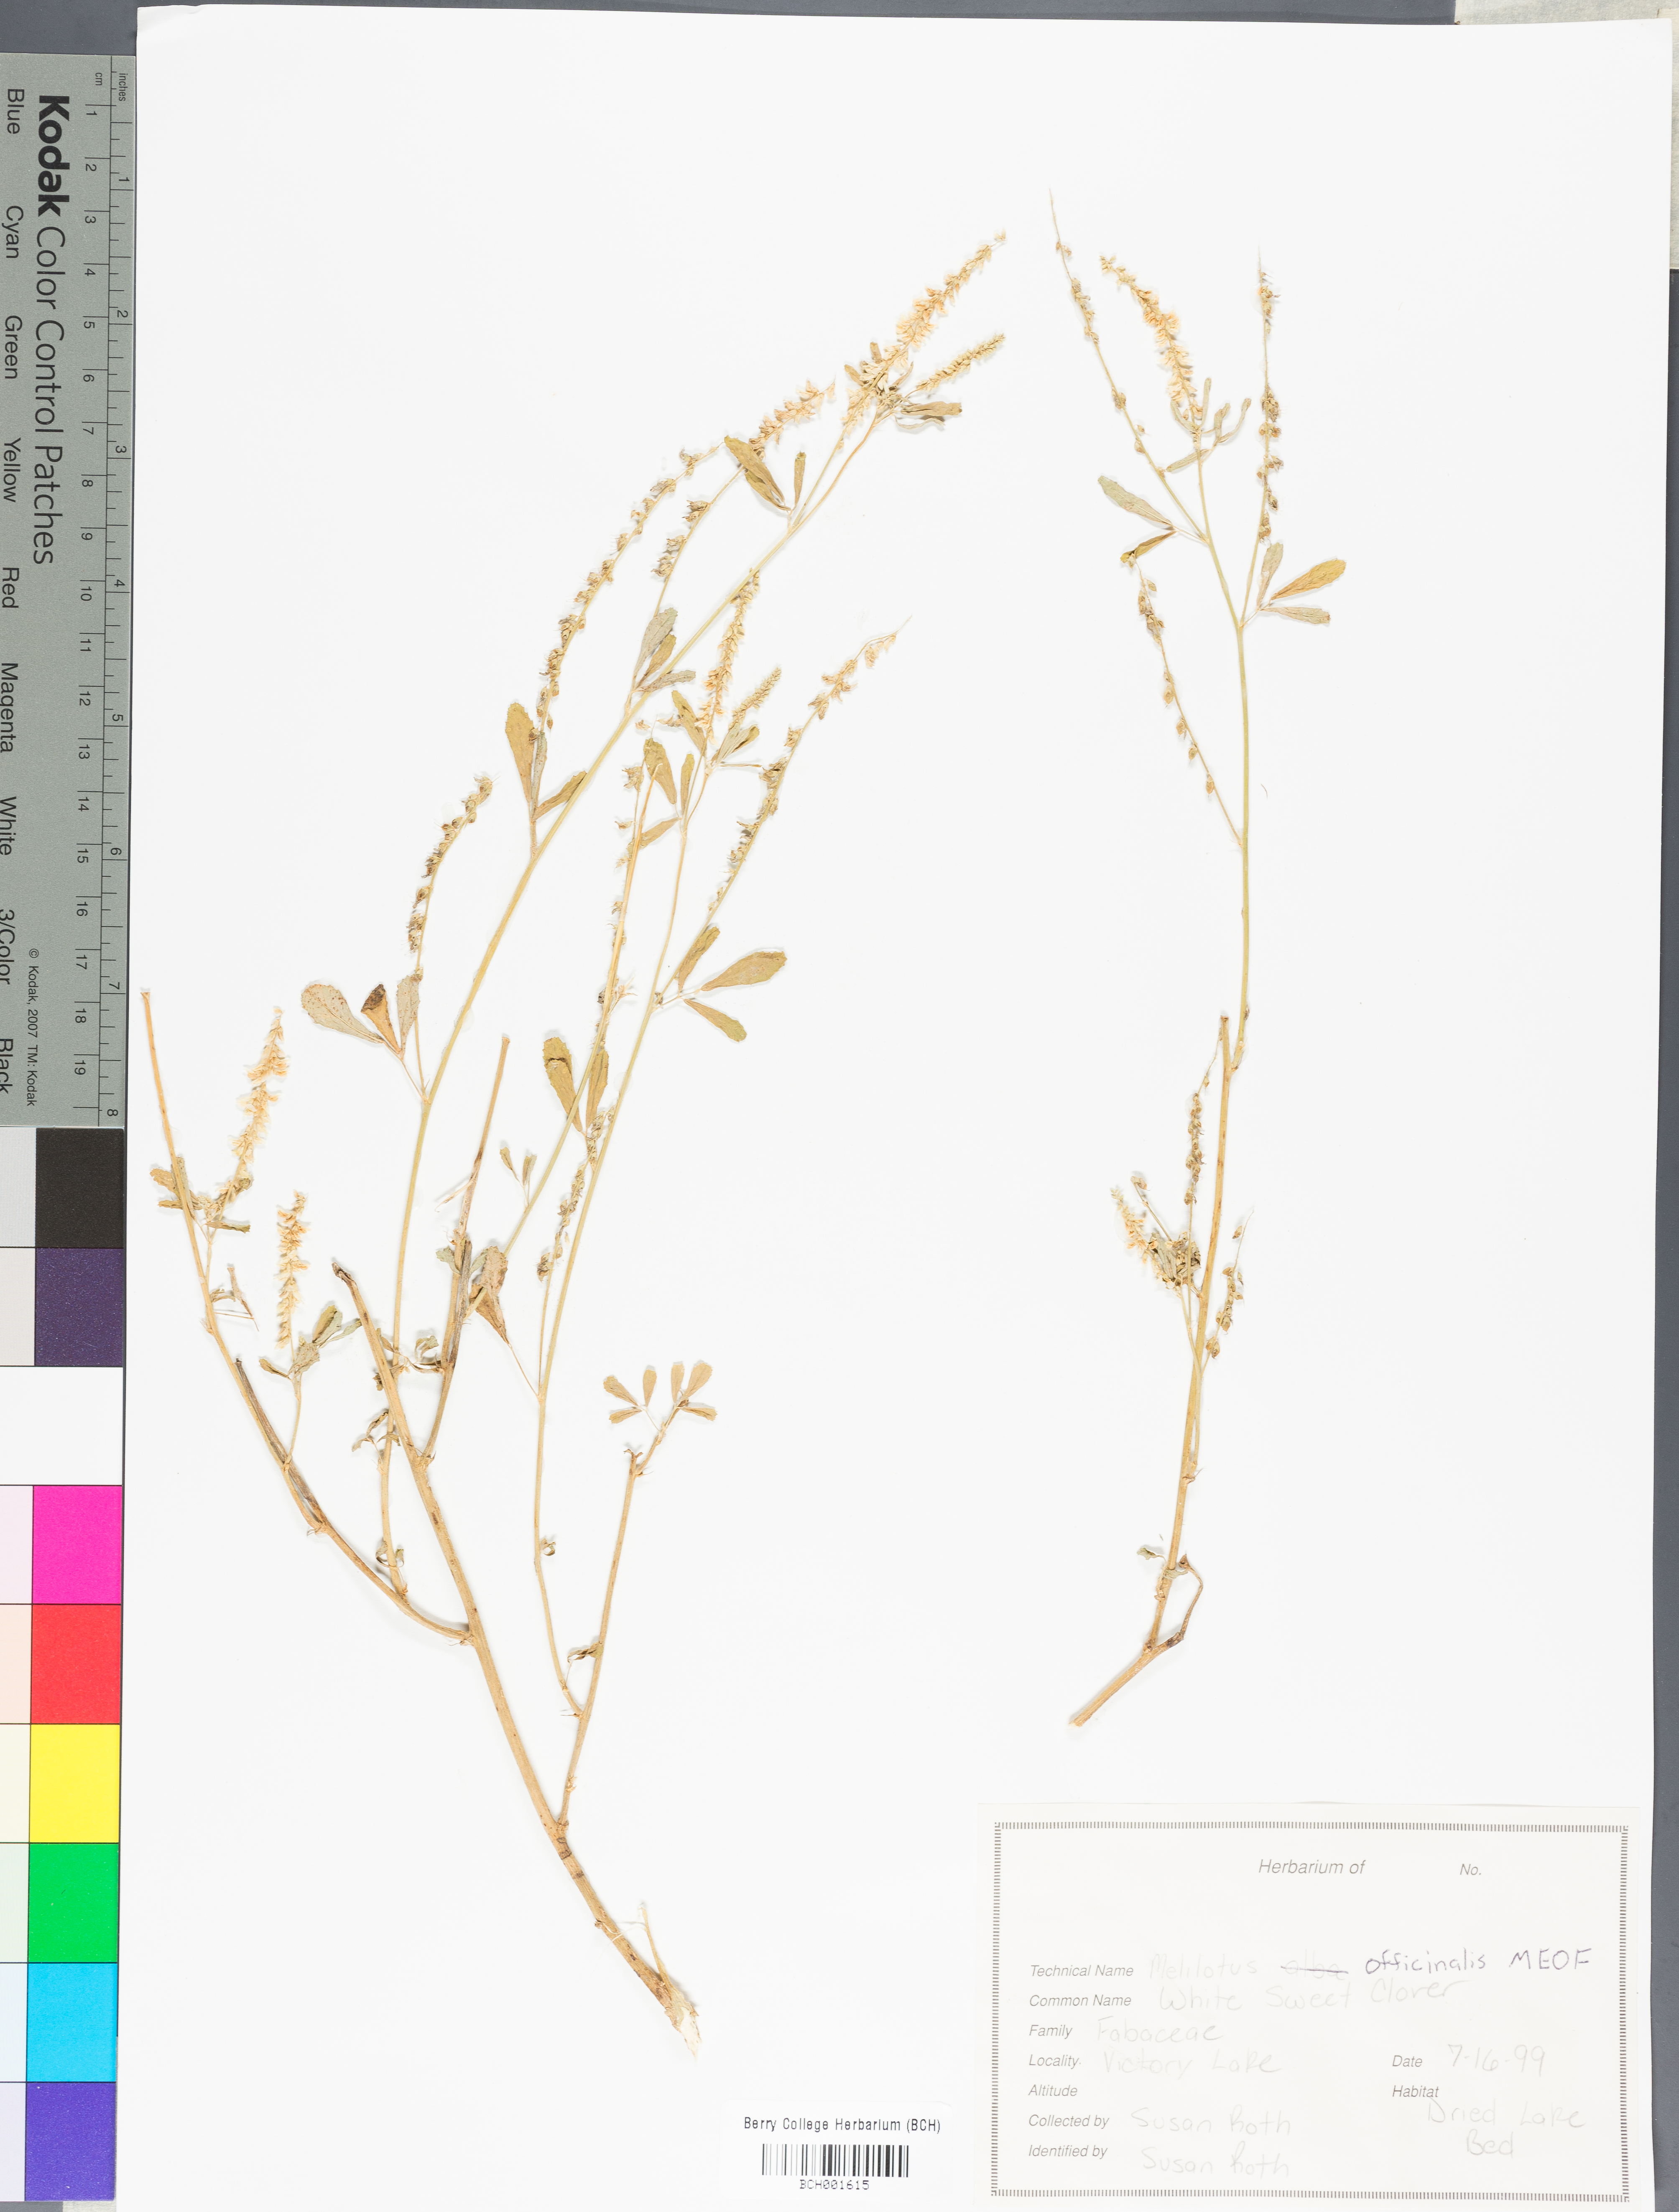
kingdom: Plantae
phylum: Tracheophyta
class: Magnoliopsida
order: Fabales
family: Fabaceae
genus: Melilotus
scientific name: Melilotus officinalis
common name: Sweetclover
